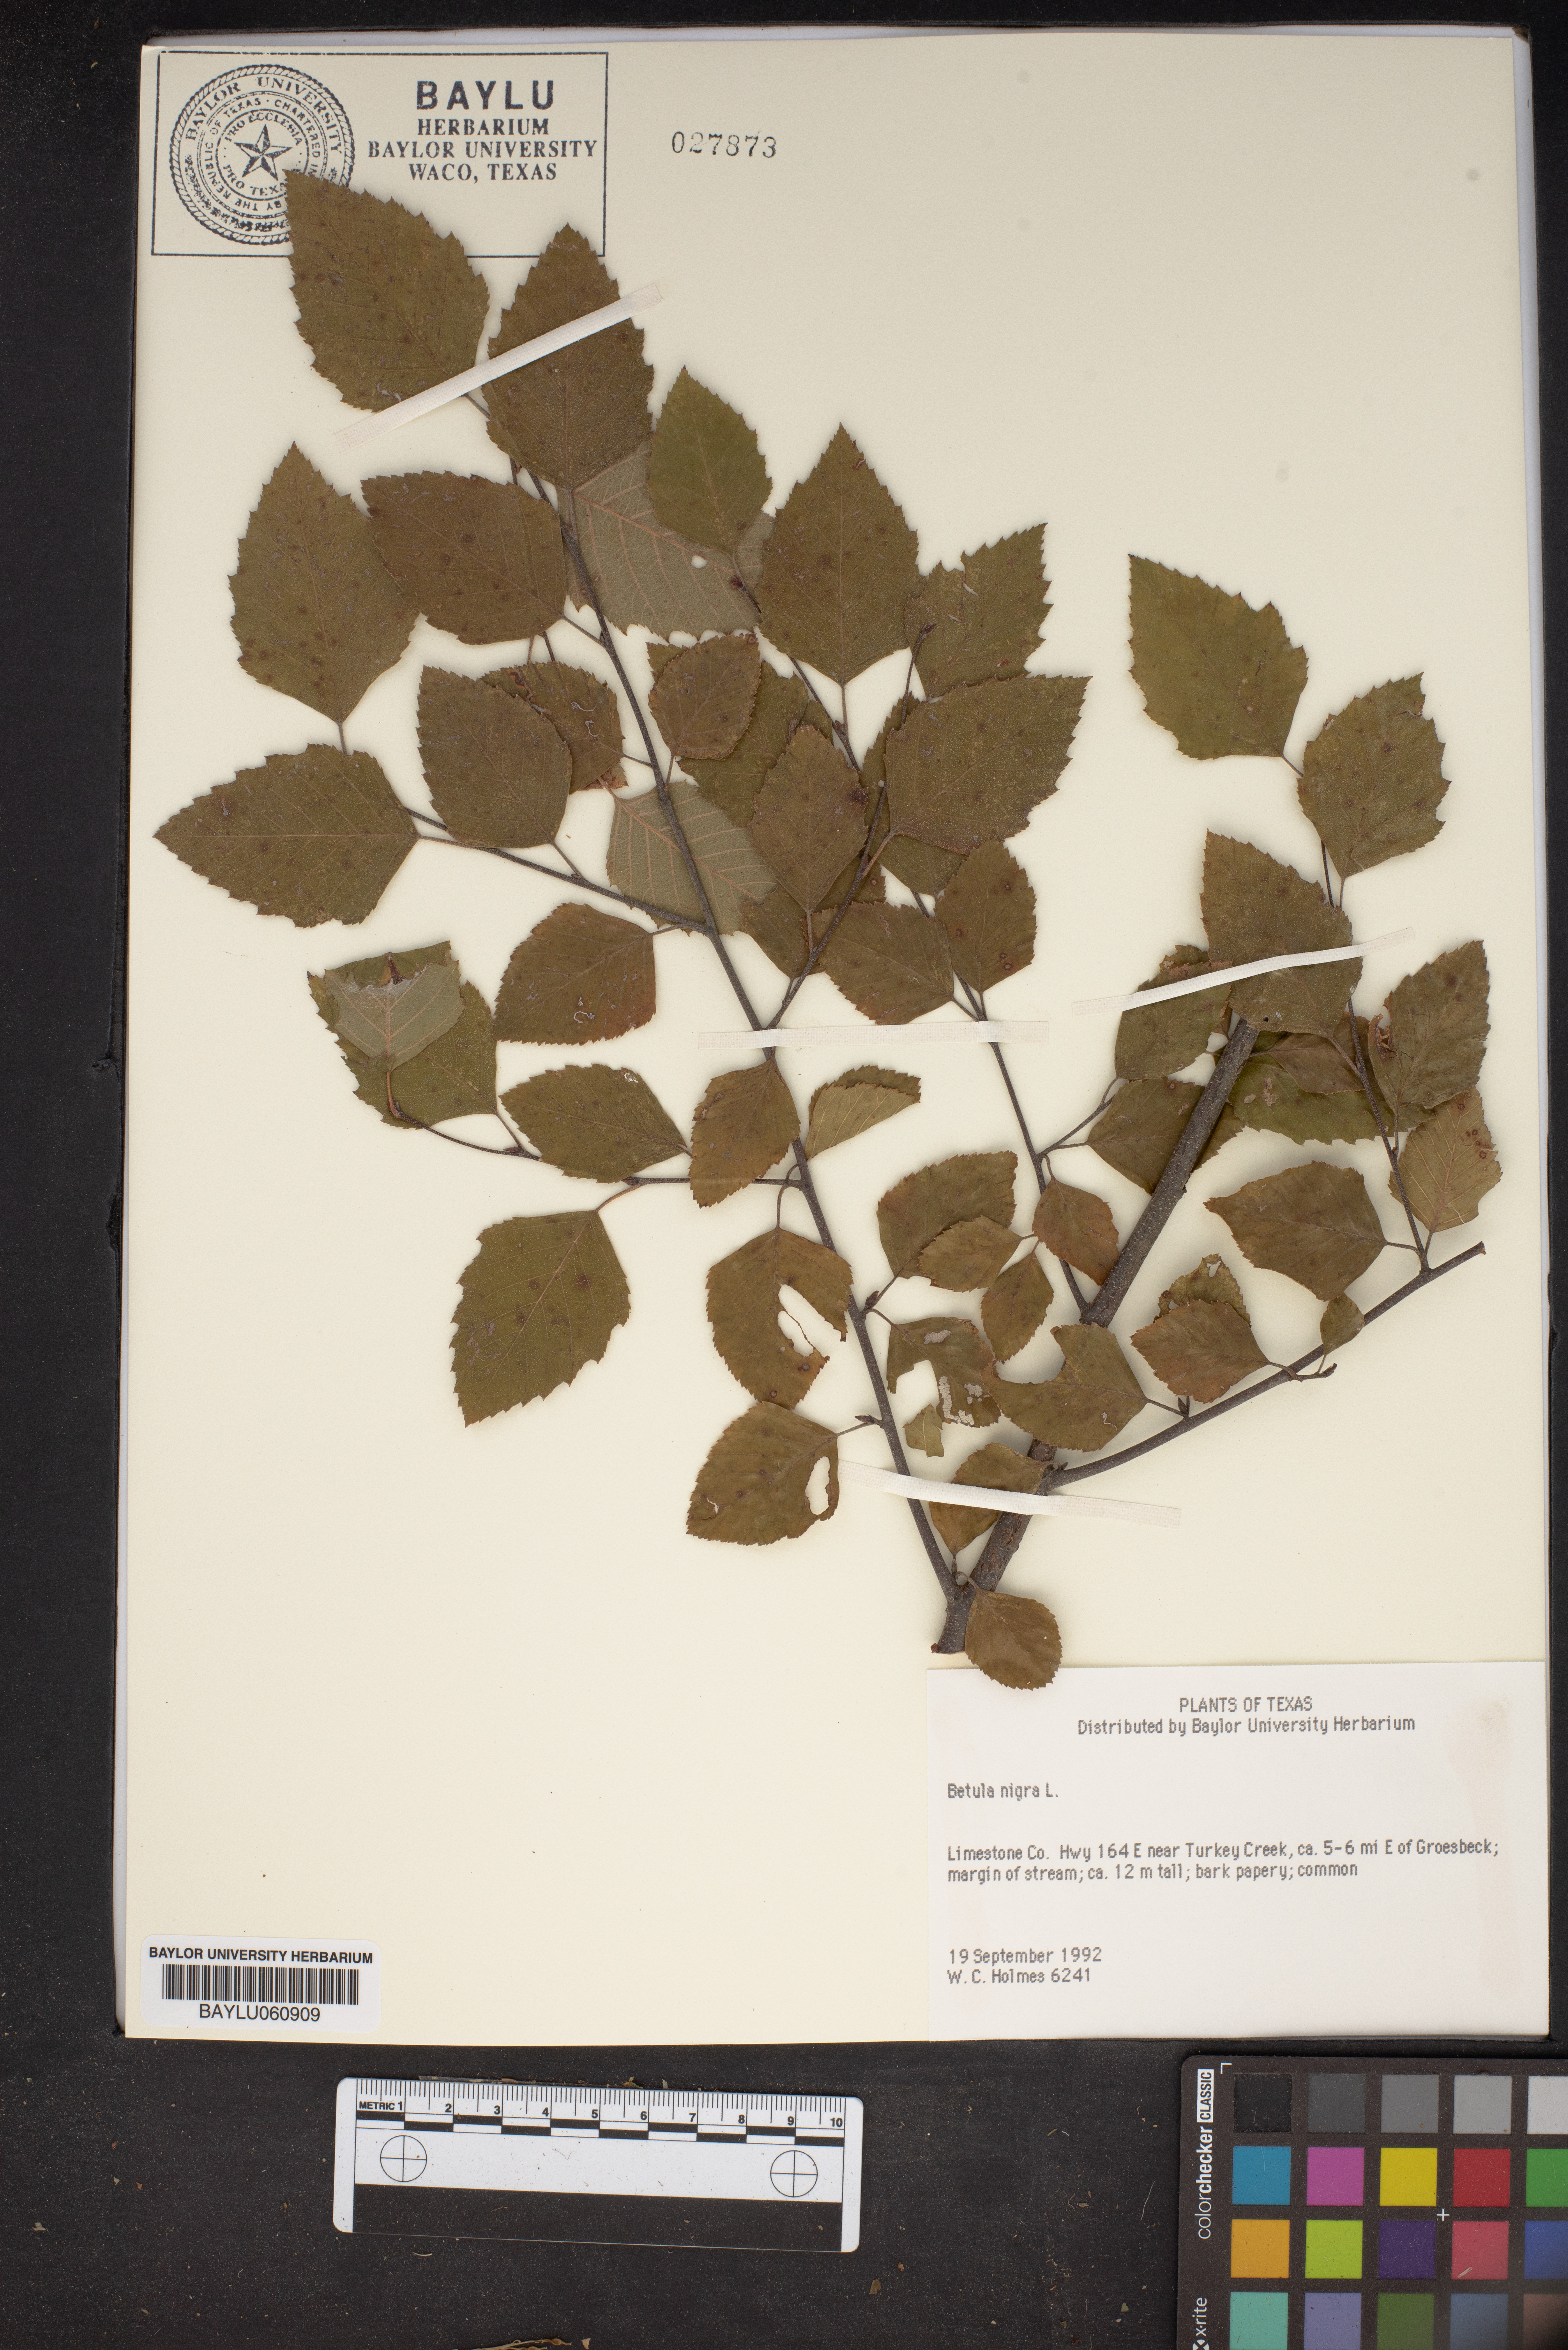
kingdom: Plantae
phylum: Tracheophyta
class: Magnoliopsida
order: Fagales
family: Betulaceae
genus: Betula
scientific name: Betula nigra
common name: Black birch
